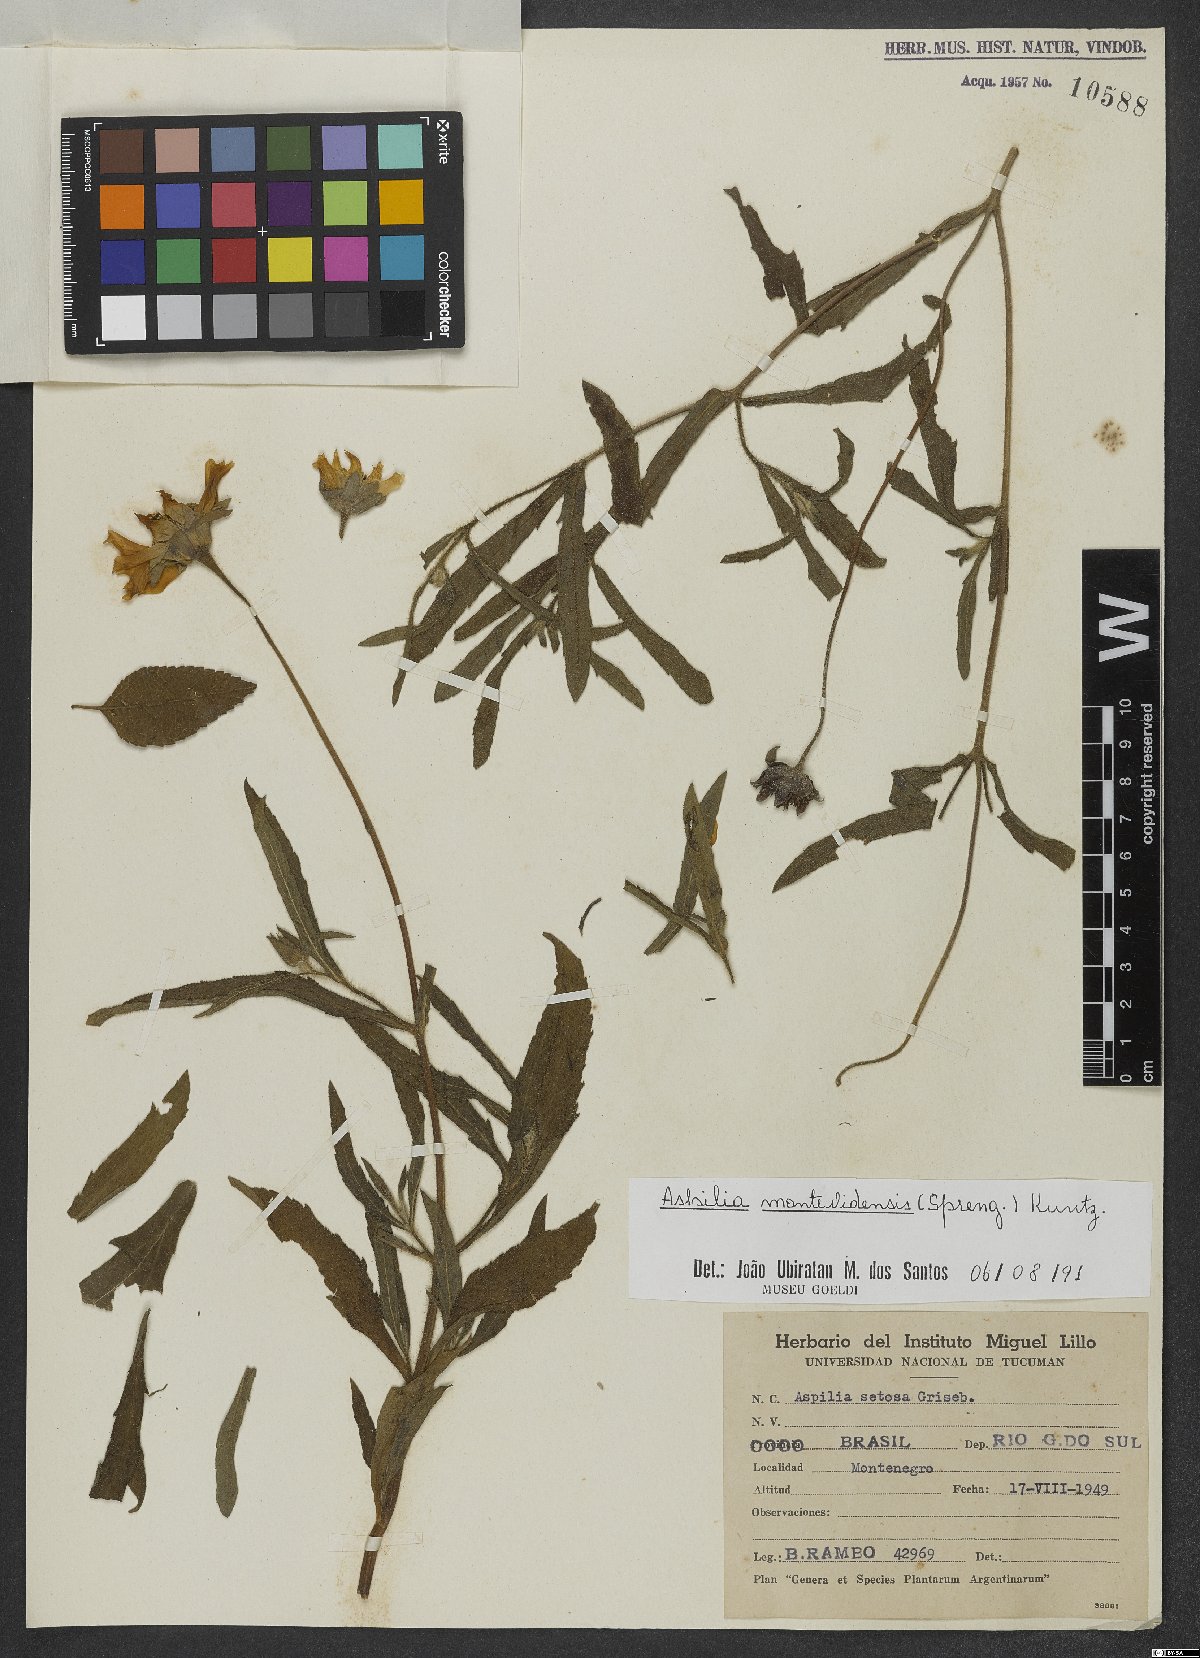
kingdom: Plantae
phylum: Tracheophyta
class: Magnoliopsida
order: Asterales
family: Asteraceae
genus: Wedelia
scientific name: Wedelia montevidensis
